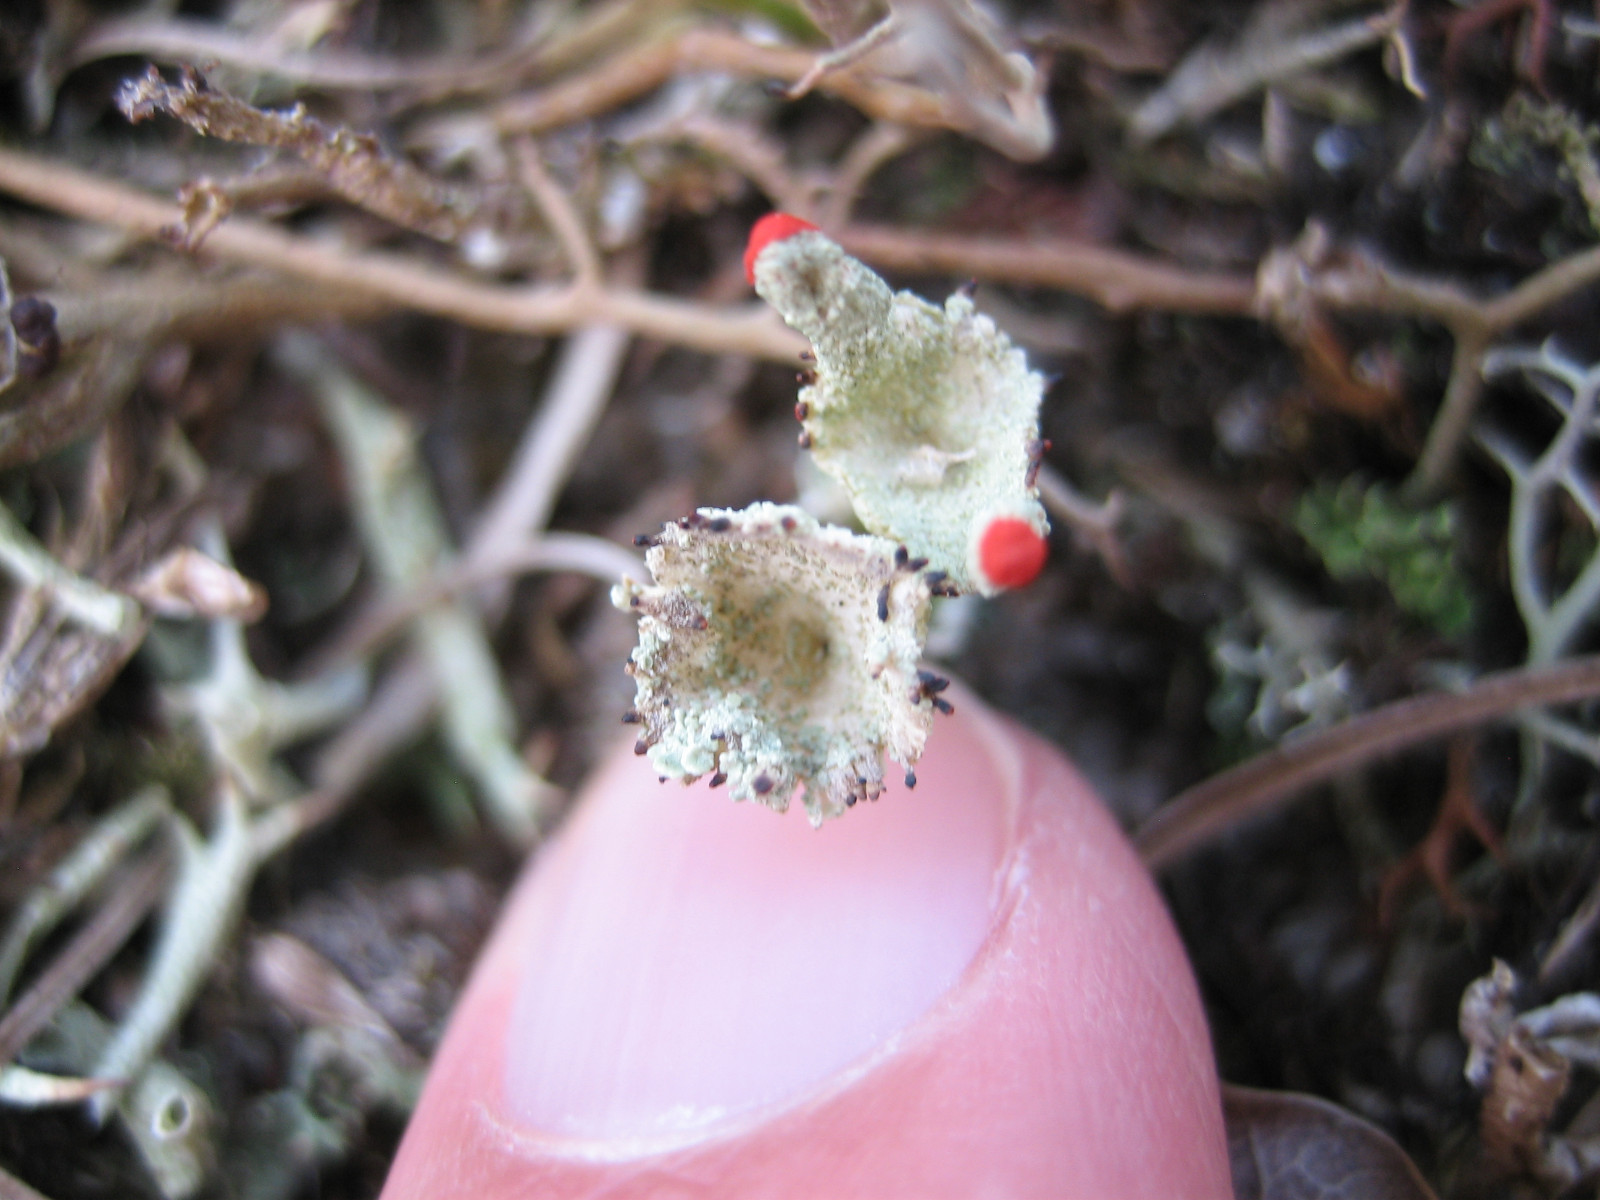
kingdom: Fungi
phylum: Ascomycota
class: Lecanoromycetes
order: Lecanorales
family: Cladoniaceae
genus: Cladonia
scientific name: Cladonia diversa
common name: rød bægerlav
